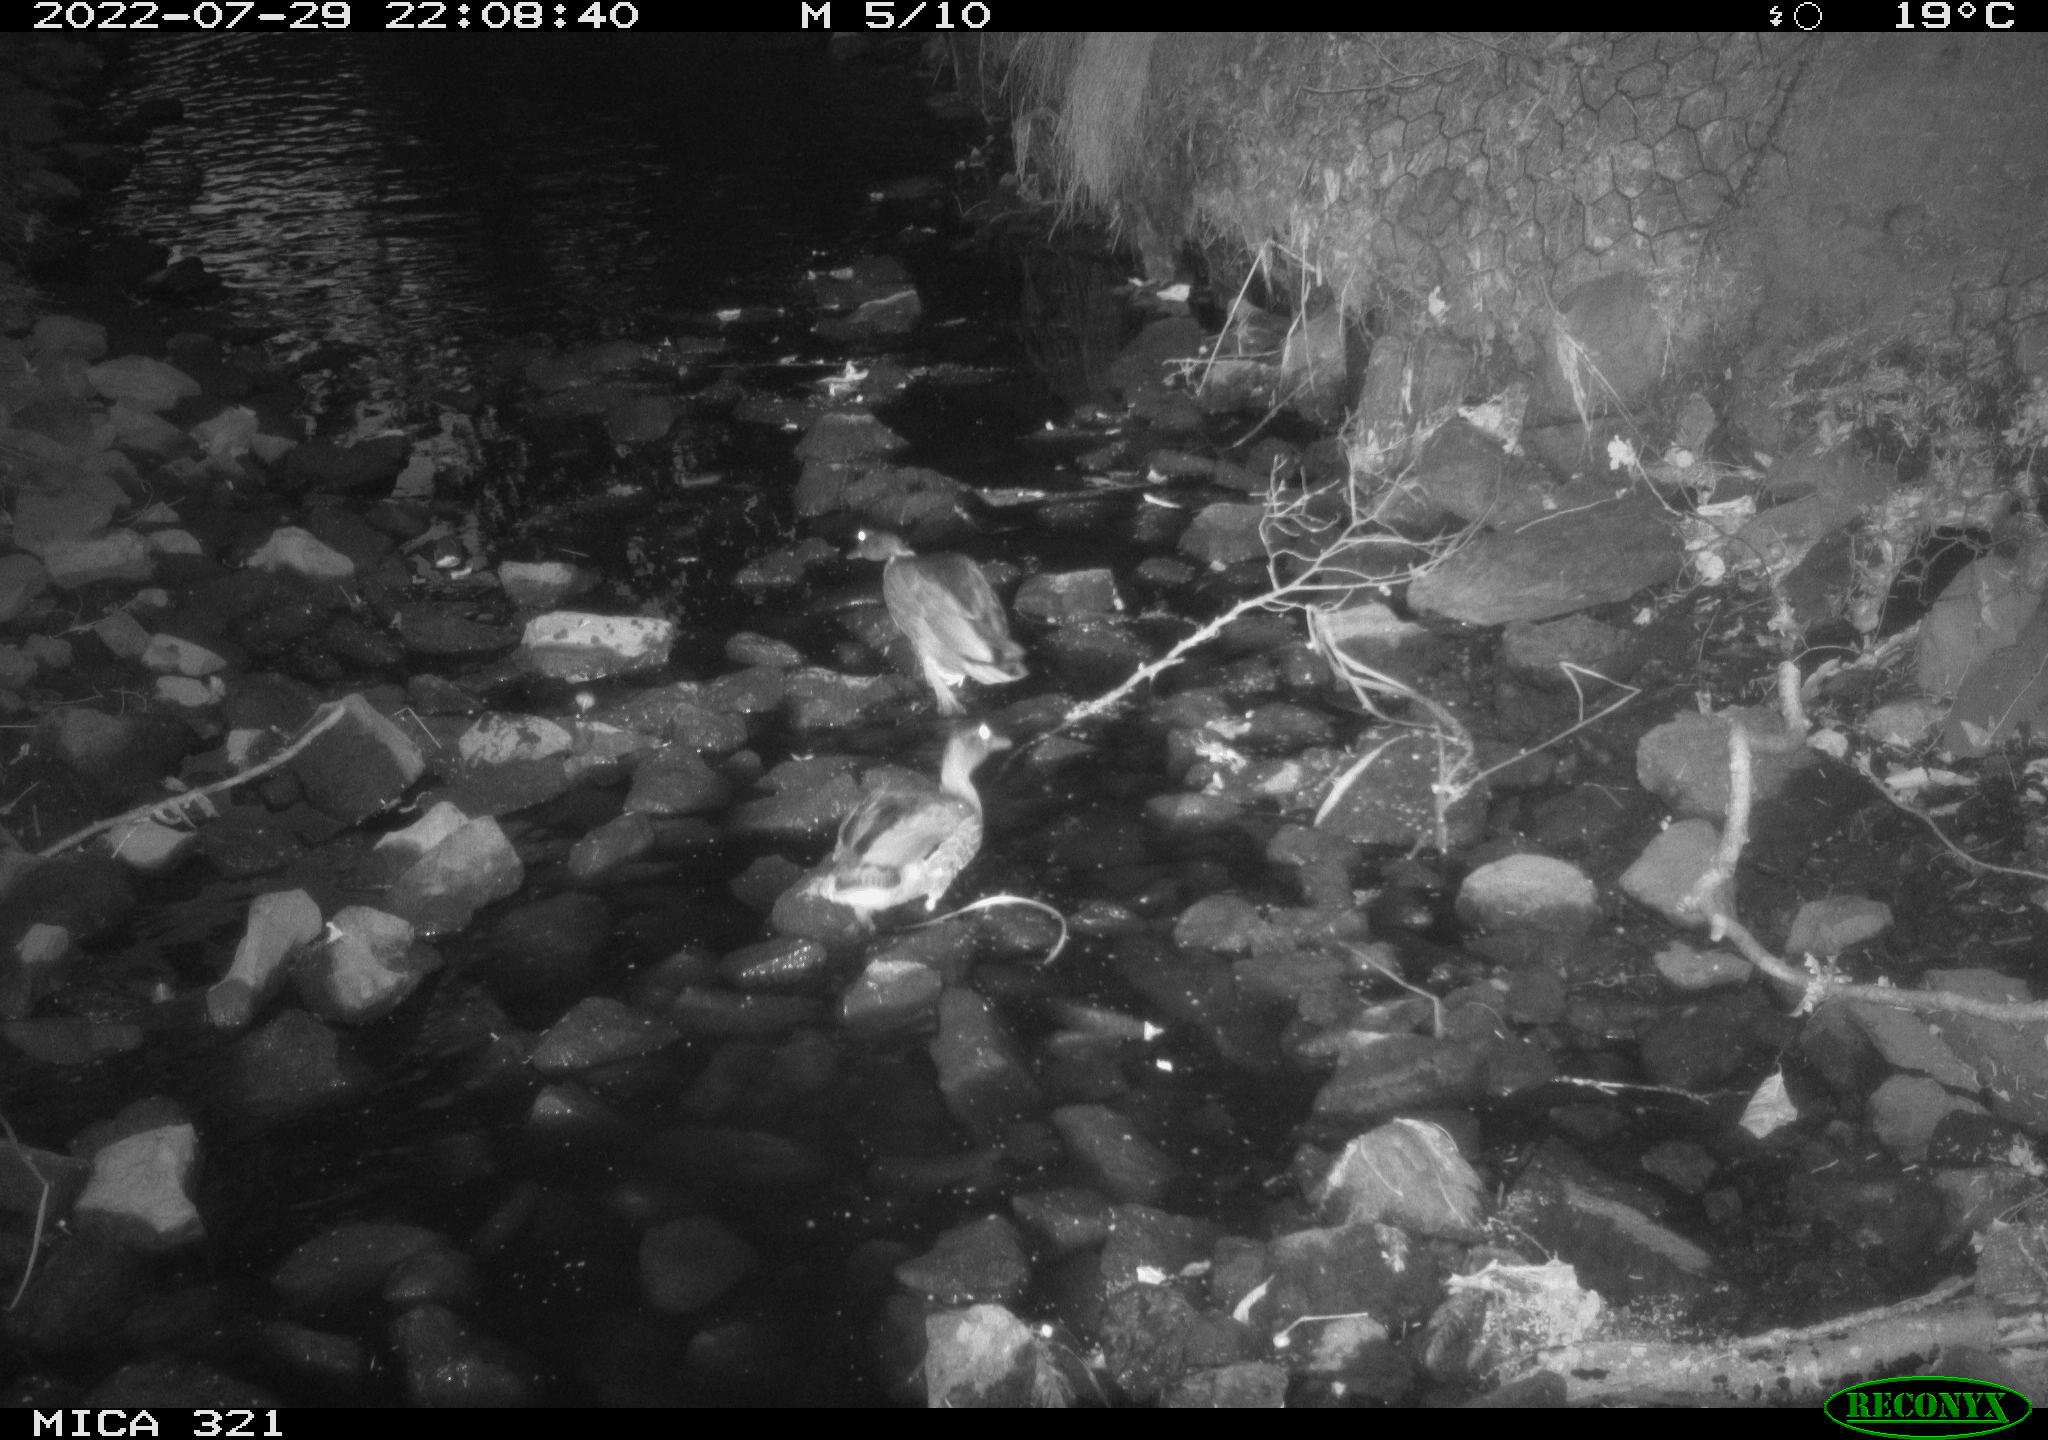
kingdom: Animalia
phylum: Chordata
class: Aves
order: Anseriformes
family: Anatidae
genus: Anas
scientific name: Anas platyrhynchos
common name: Mallard
